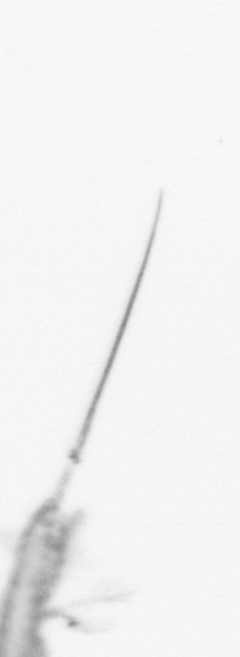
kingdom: Animalia
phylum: Arthropoda
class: Copepoda
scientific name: Copepoda
